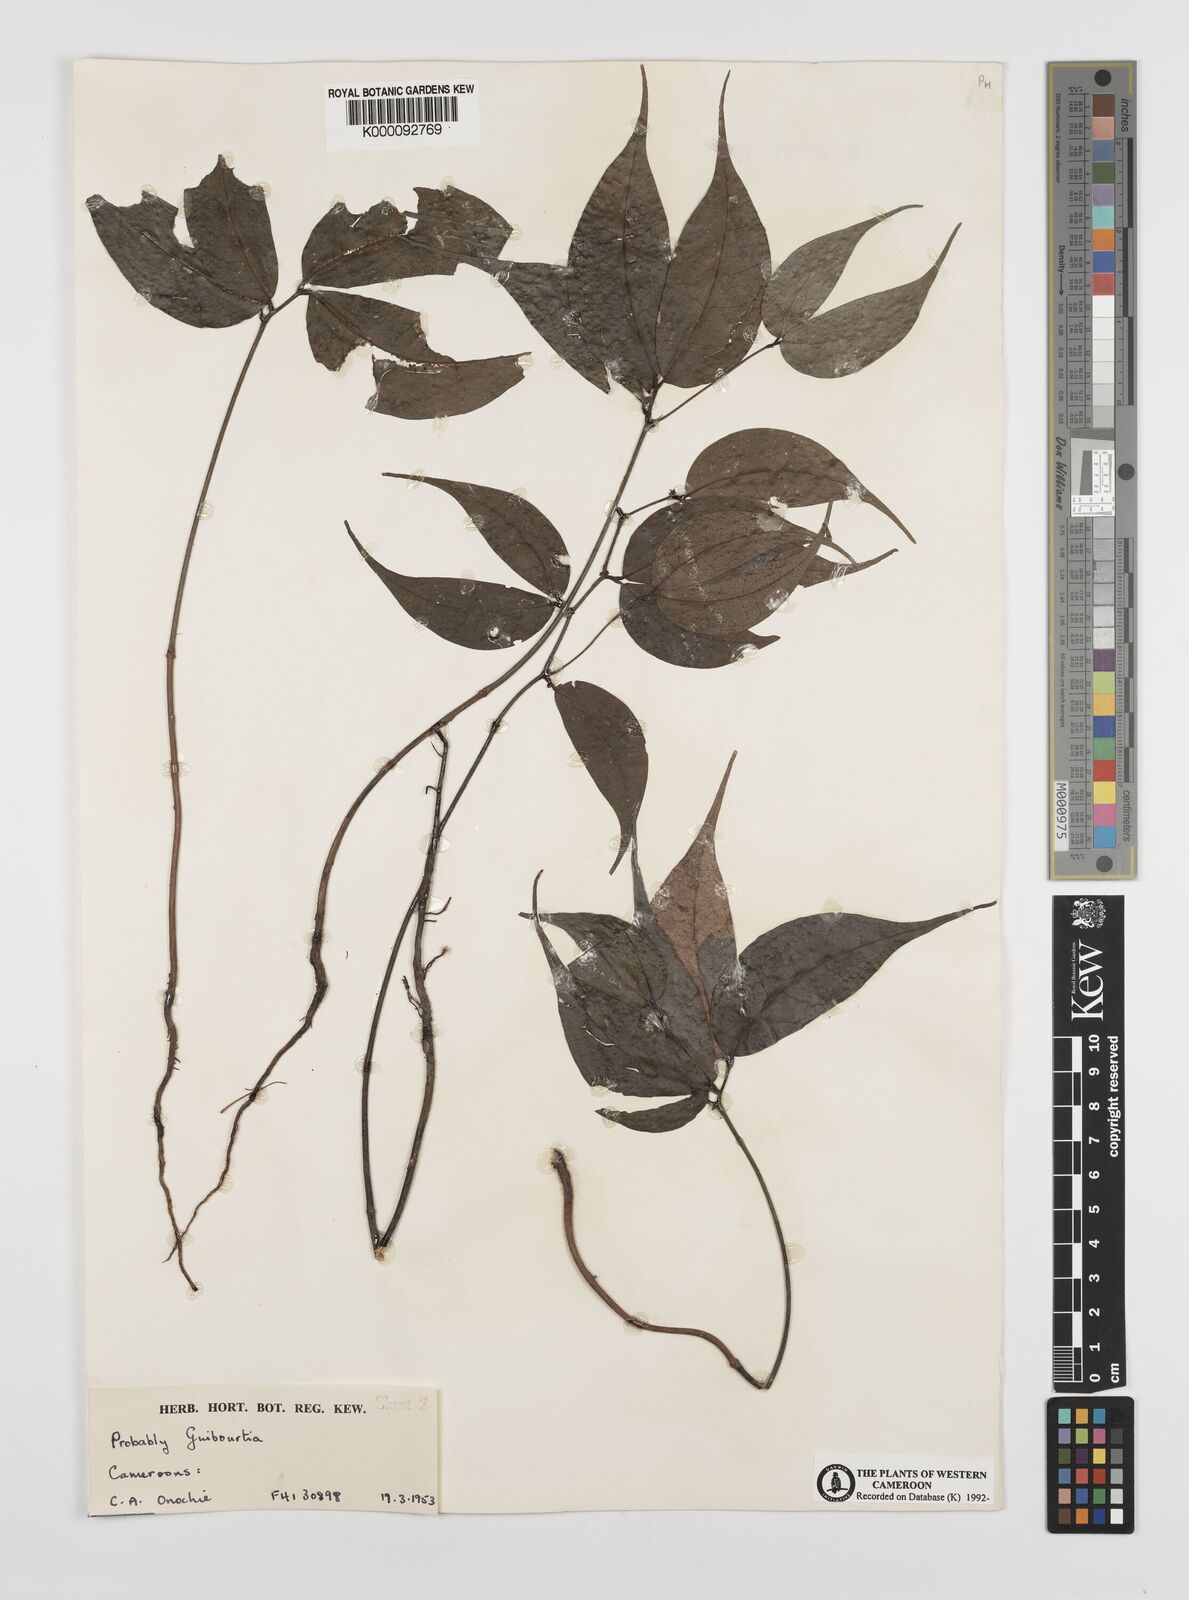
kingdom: Plantae
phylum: Tracheophyta
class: Magnoliopsida
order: Fabales
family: Fabaceae
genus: Guibourtia
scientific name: Guibourtia
